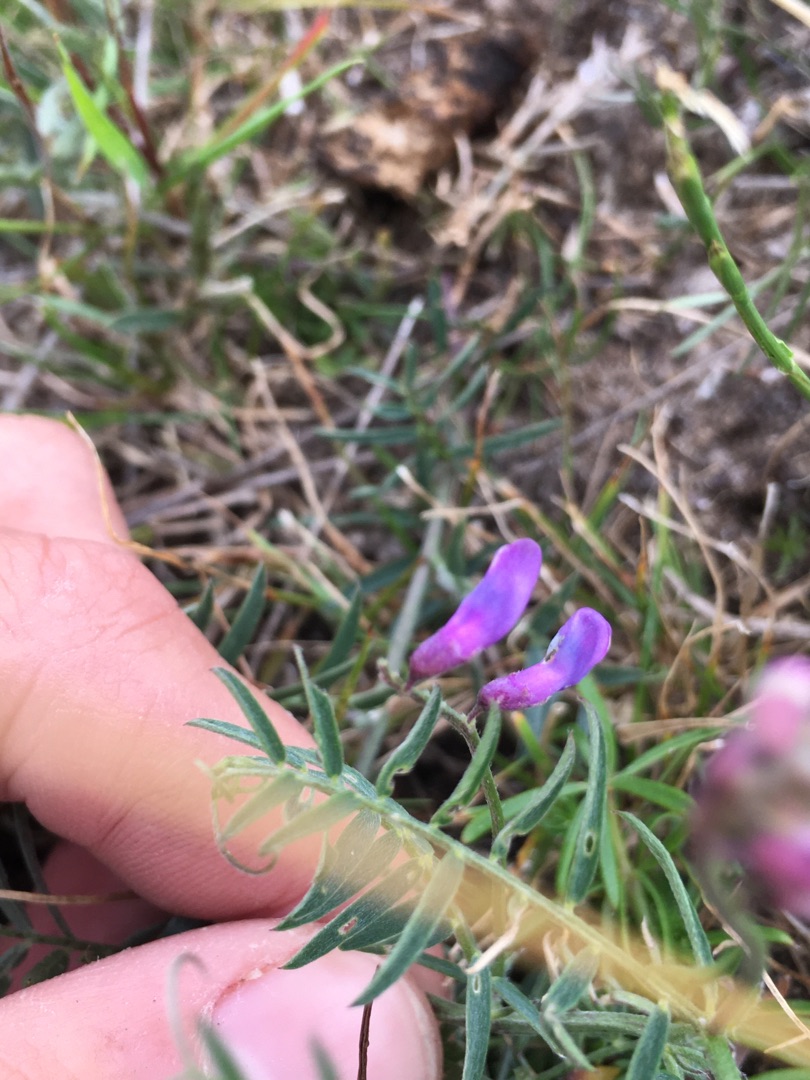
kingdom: Plantae
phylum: Tracheophyta
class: Magnoliopsida
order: Fabales
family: Fabaceae
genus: Vicia
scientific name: Vicia cracca
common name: Muse-vikke
